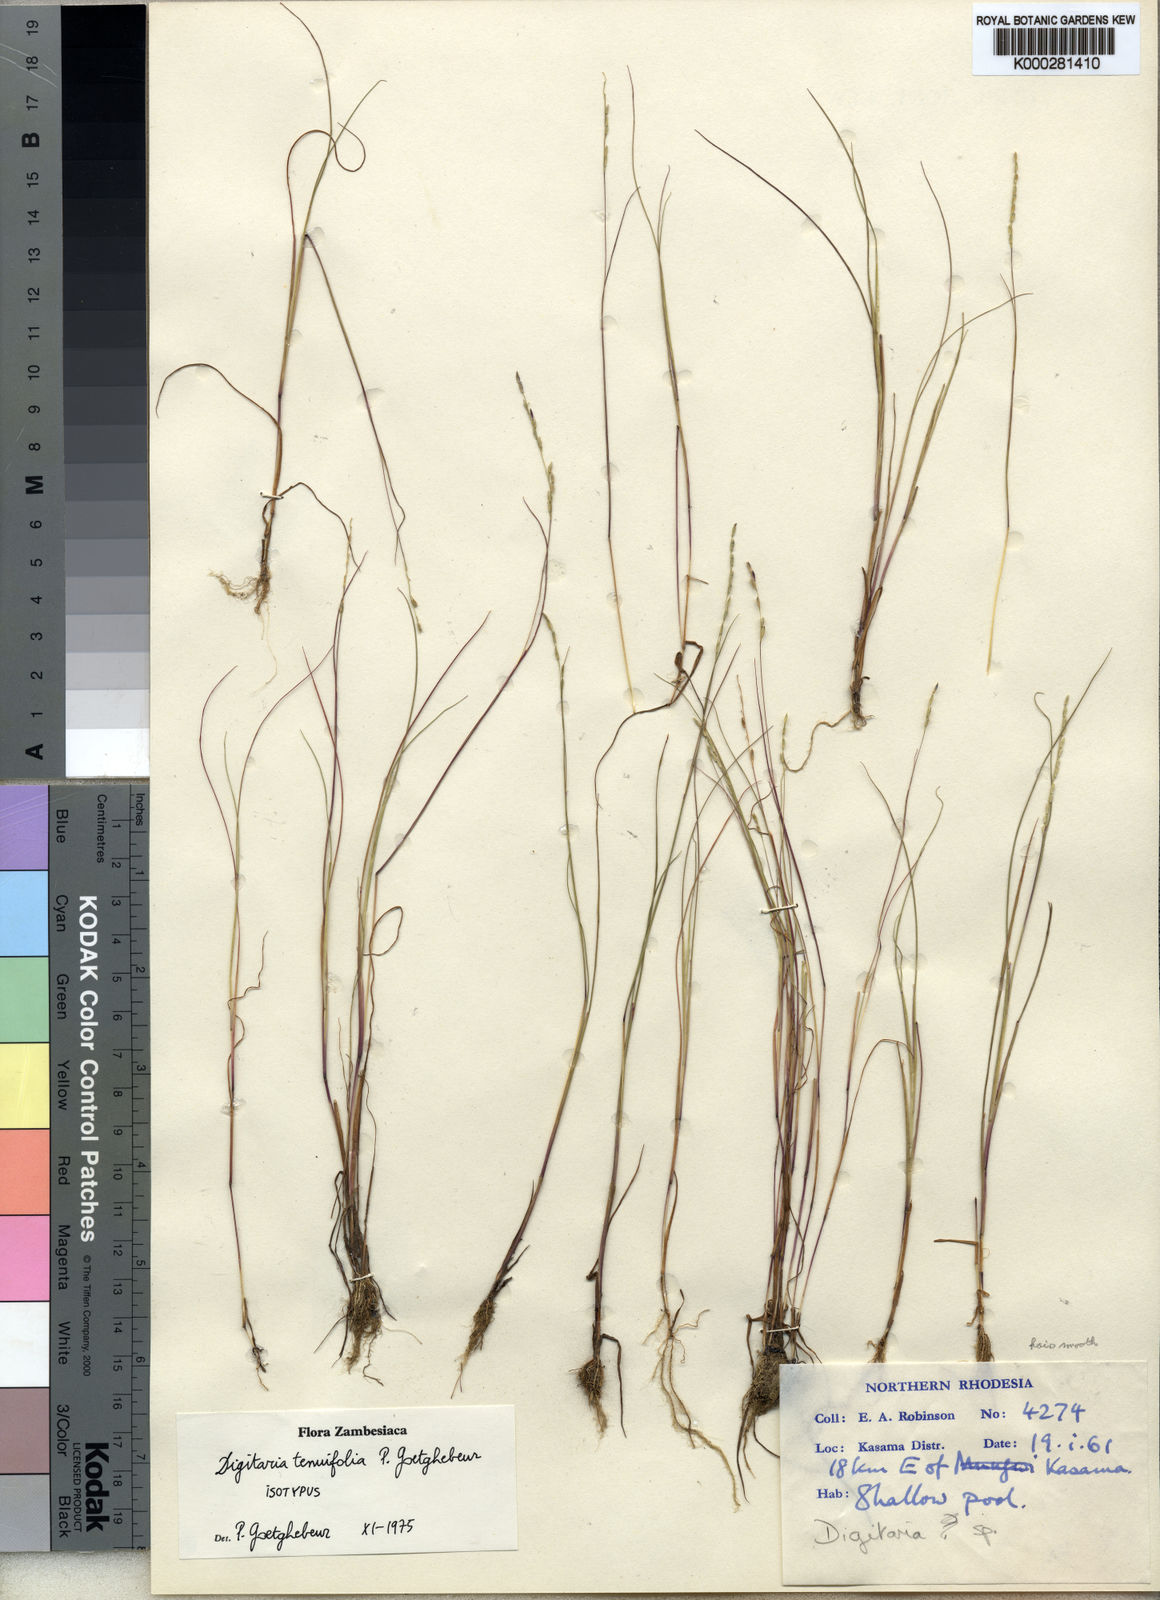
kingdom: Plantae
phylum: Tracheophyta
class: Liliopsida
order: Poales
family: Poaceae
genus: Digitaria
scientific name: Digitaria tenuifolia
